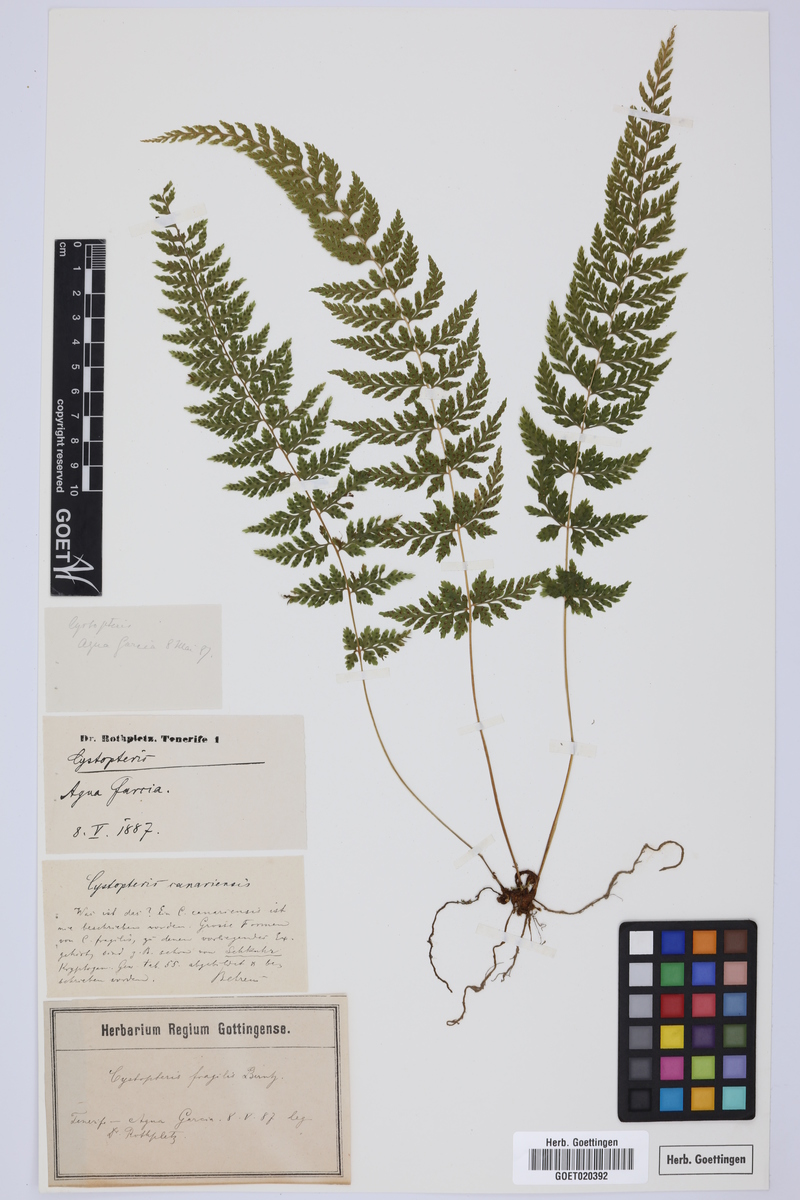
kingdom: Plantae
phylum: Tracheophyta
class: Polypodiopsida
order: Polypodiales
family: Cystopteridaceae
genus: Cystopteris
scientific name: Cystopteris fragilis
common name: Brittle bladder fern
